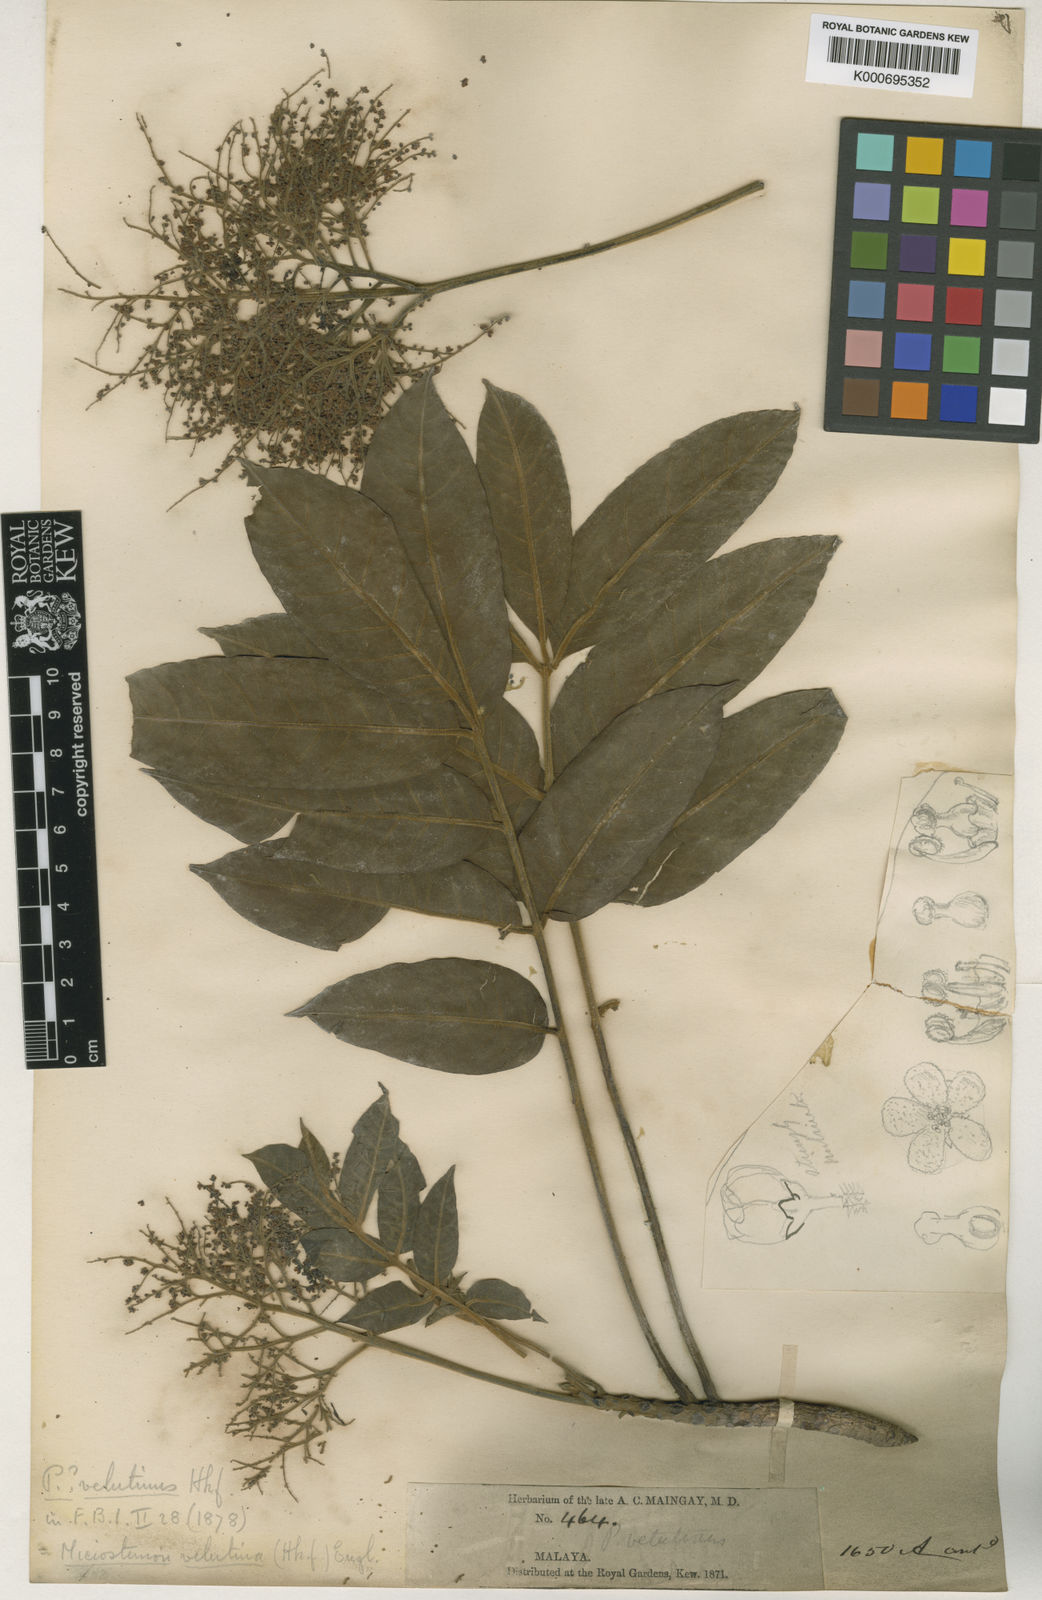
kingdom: Plantae
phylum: Tracheophyta
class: Magnoliopsida
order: Sapindales
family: Anacardiaceae
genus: Pentaspadon
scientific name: Pentaspadon velutinus
